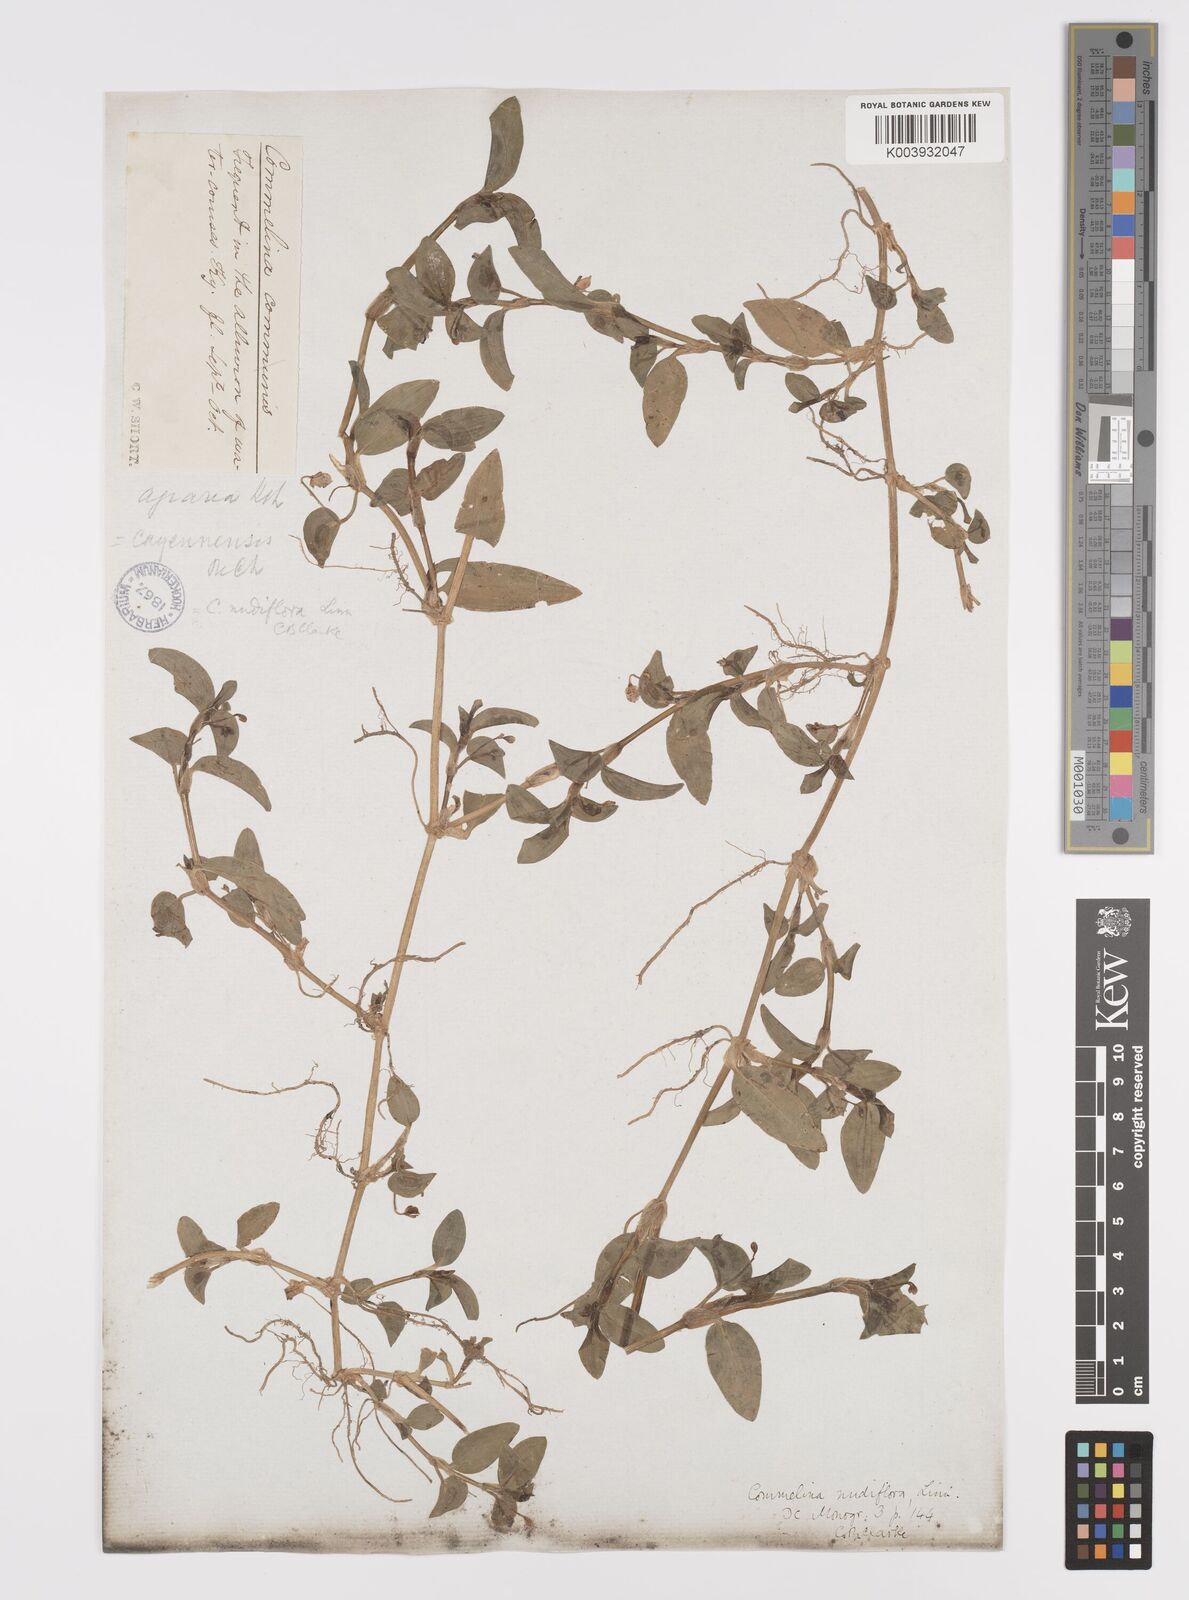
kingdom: Plantae
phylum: Tracheophyta
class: Liliopsida
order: Commelinales
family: Commelinaceae
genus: Murdannia
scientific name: Murdannia nudiflora
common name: Nakedstem dewflower
